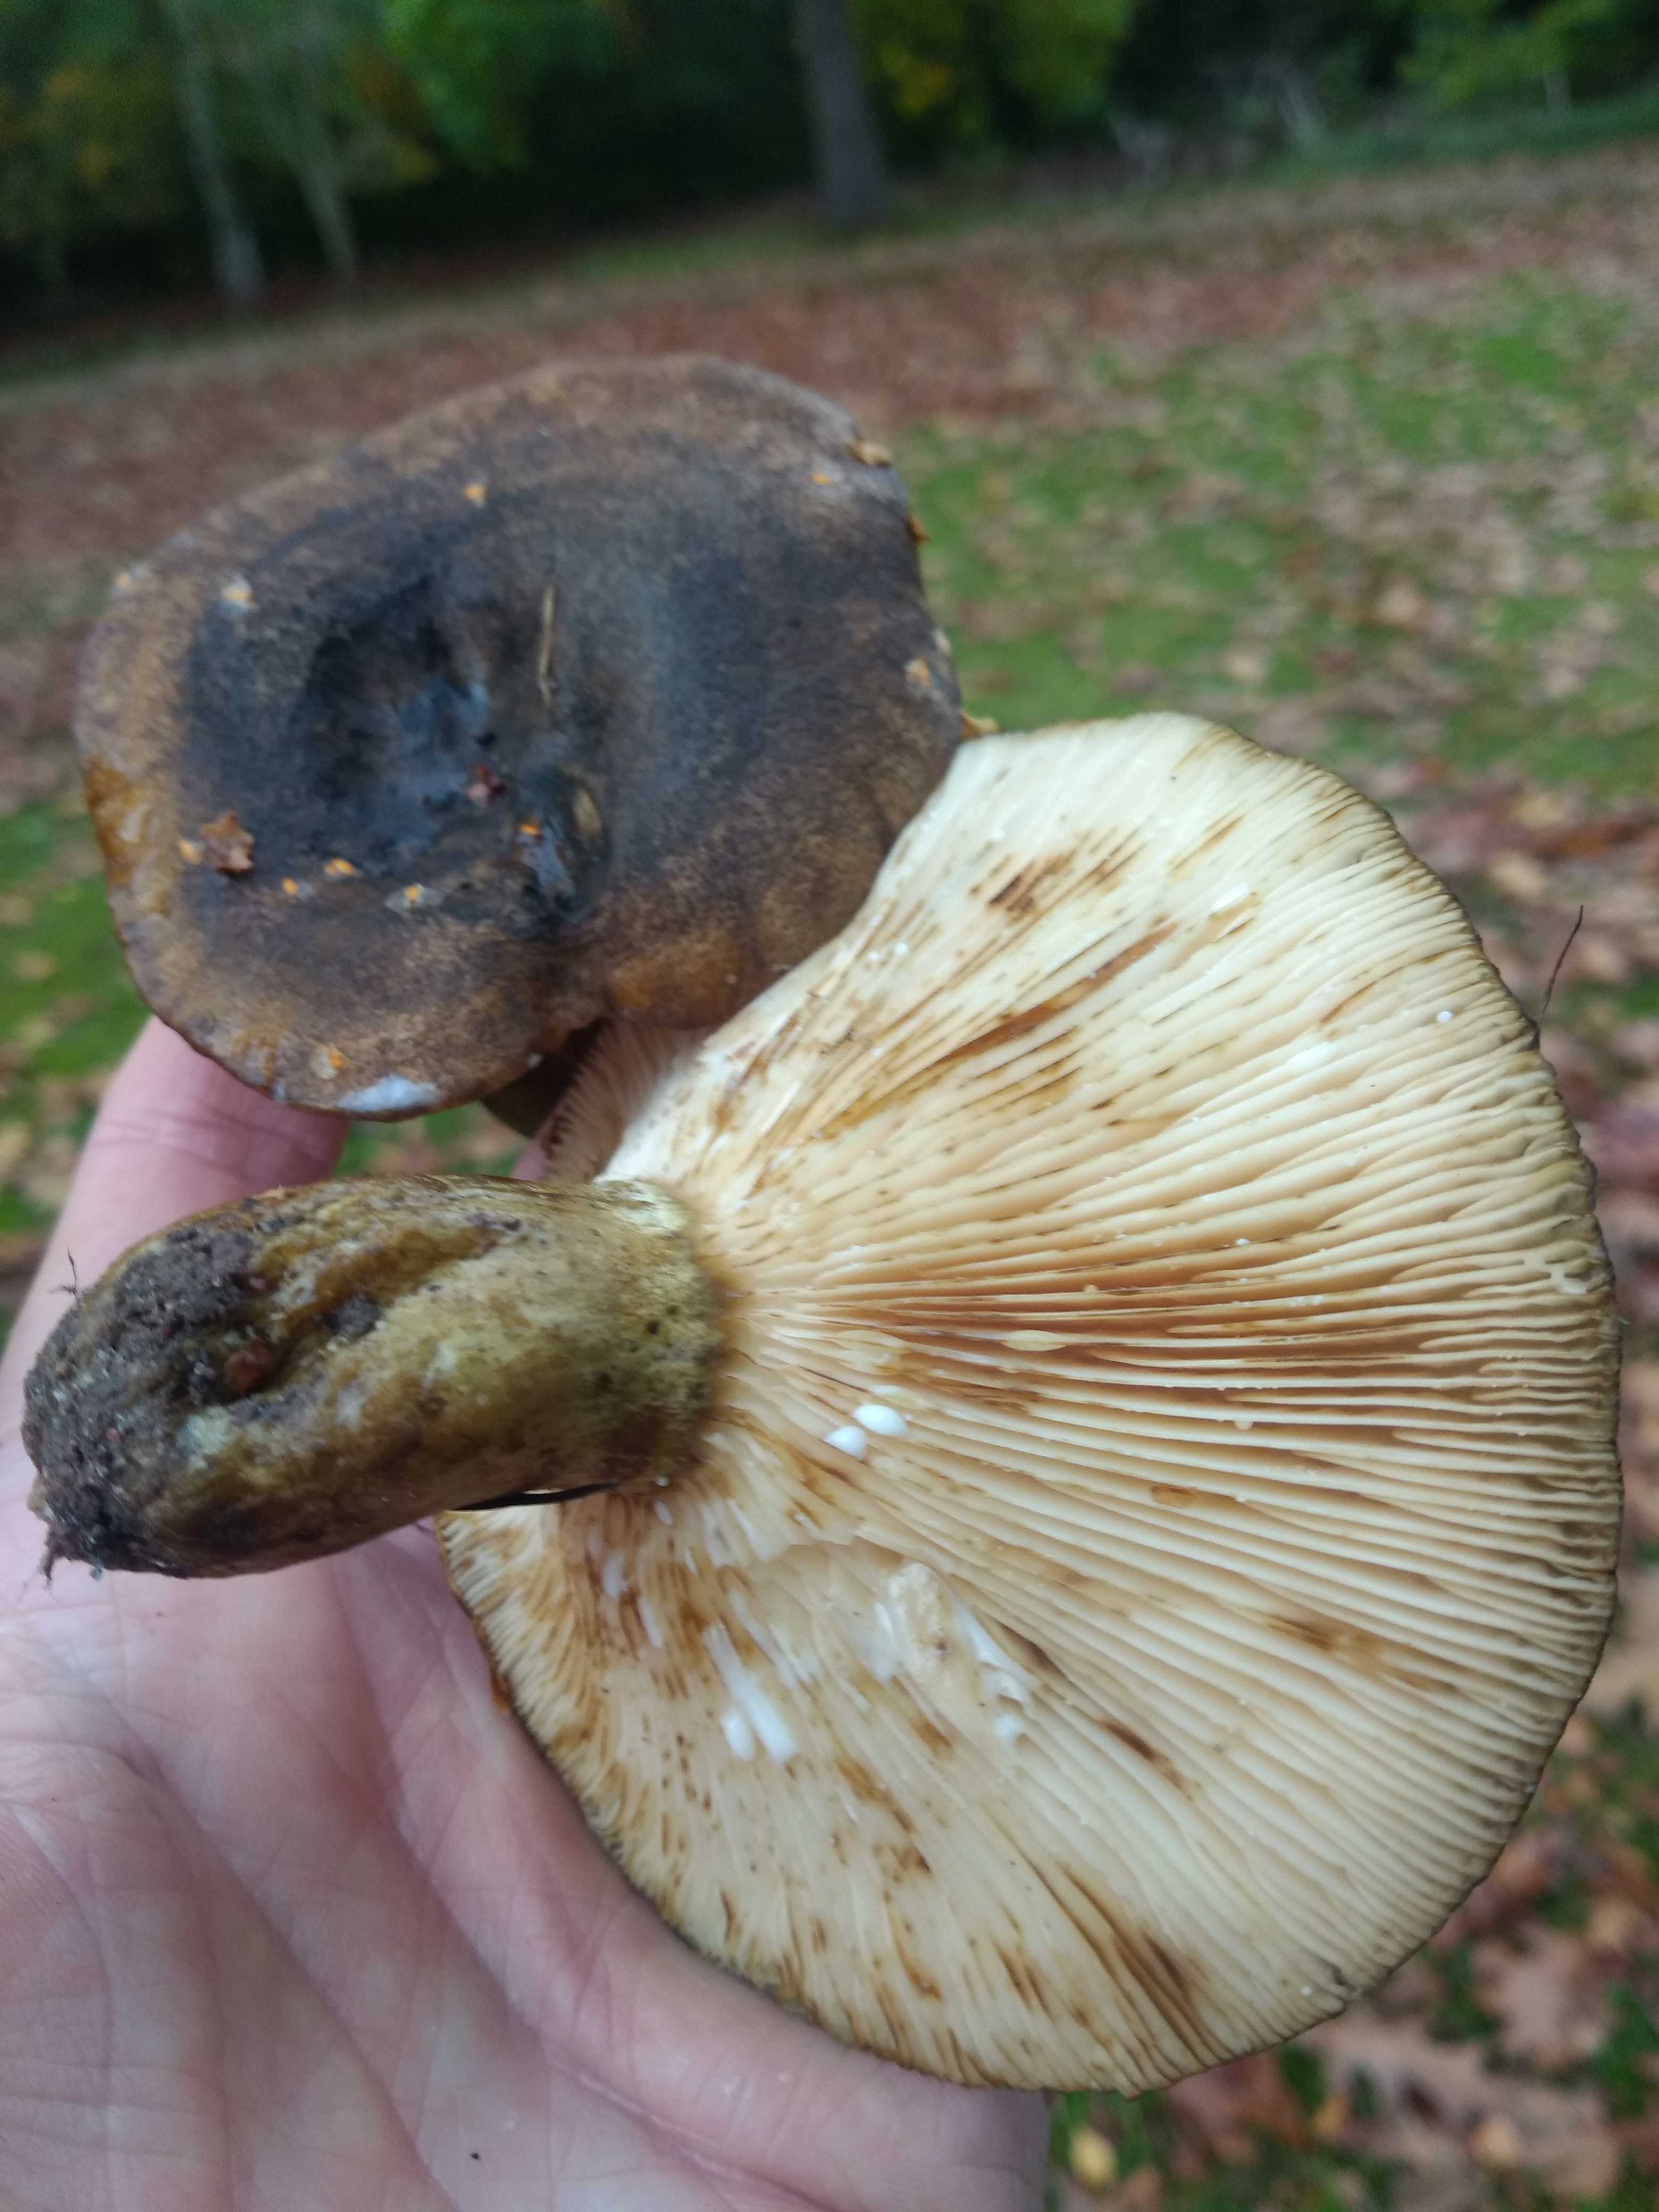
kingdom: Fungi
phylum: Basidiomycota
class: Agaricomycetes
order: Russulales
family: Russulaceae
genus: Lactarius
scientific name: Lactarius necator
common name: manddraber-mælkehat
